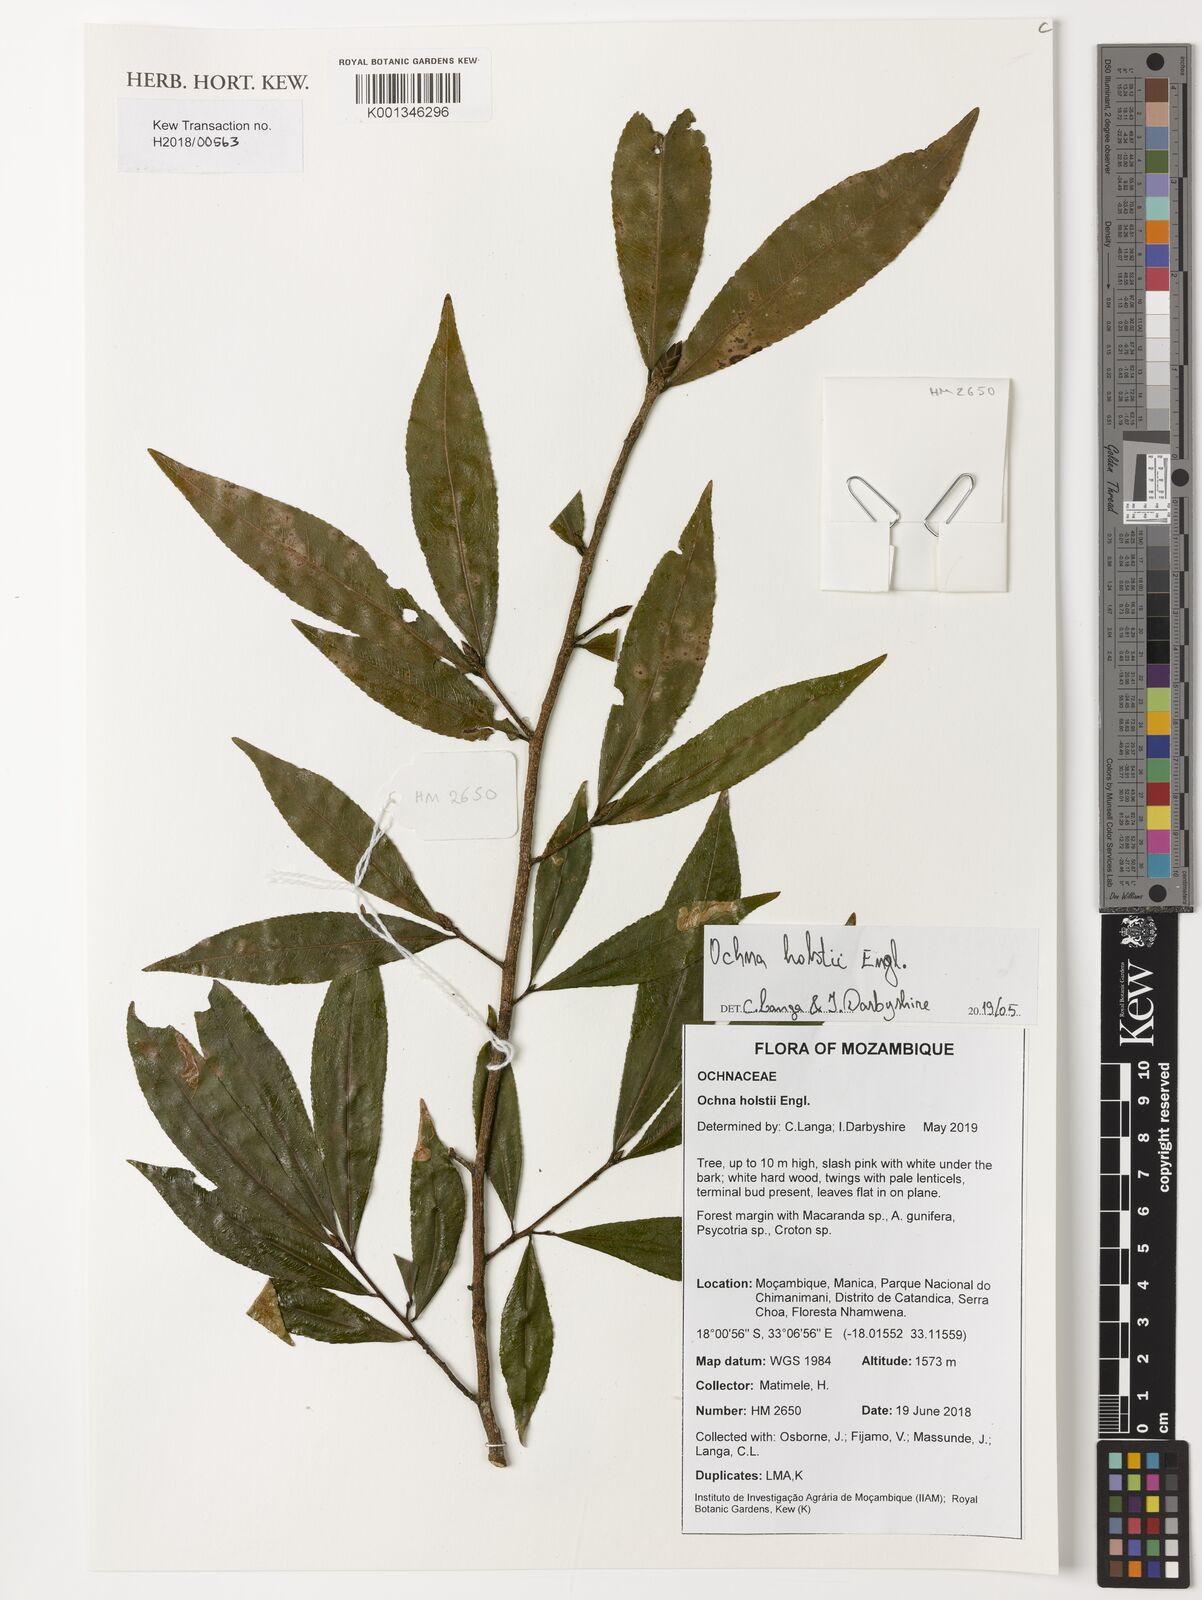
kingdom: Plantae
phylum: Tracheophyta
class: Magnoliopsida
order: Malpighiales
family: Ochnaceae
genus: Ochna
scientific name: Ochna holstii
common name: Red ironwood
